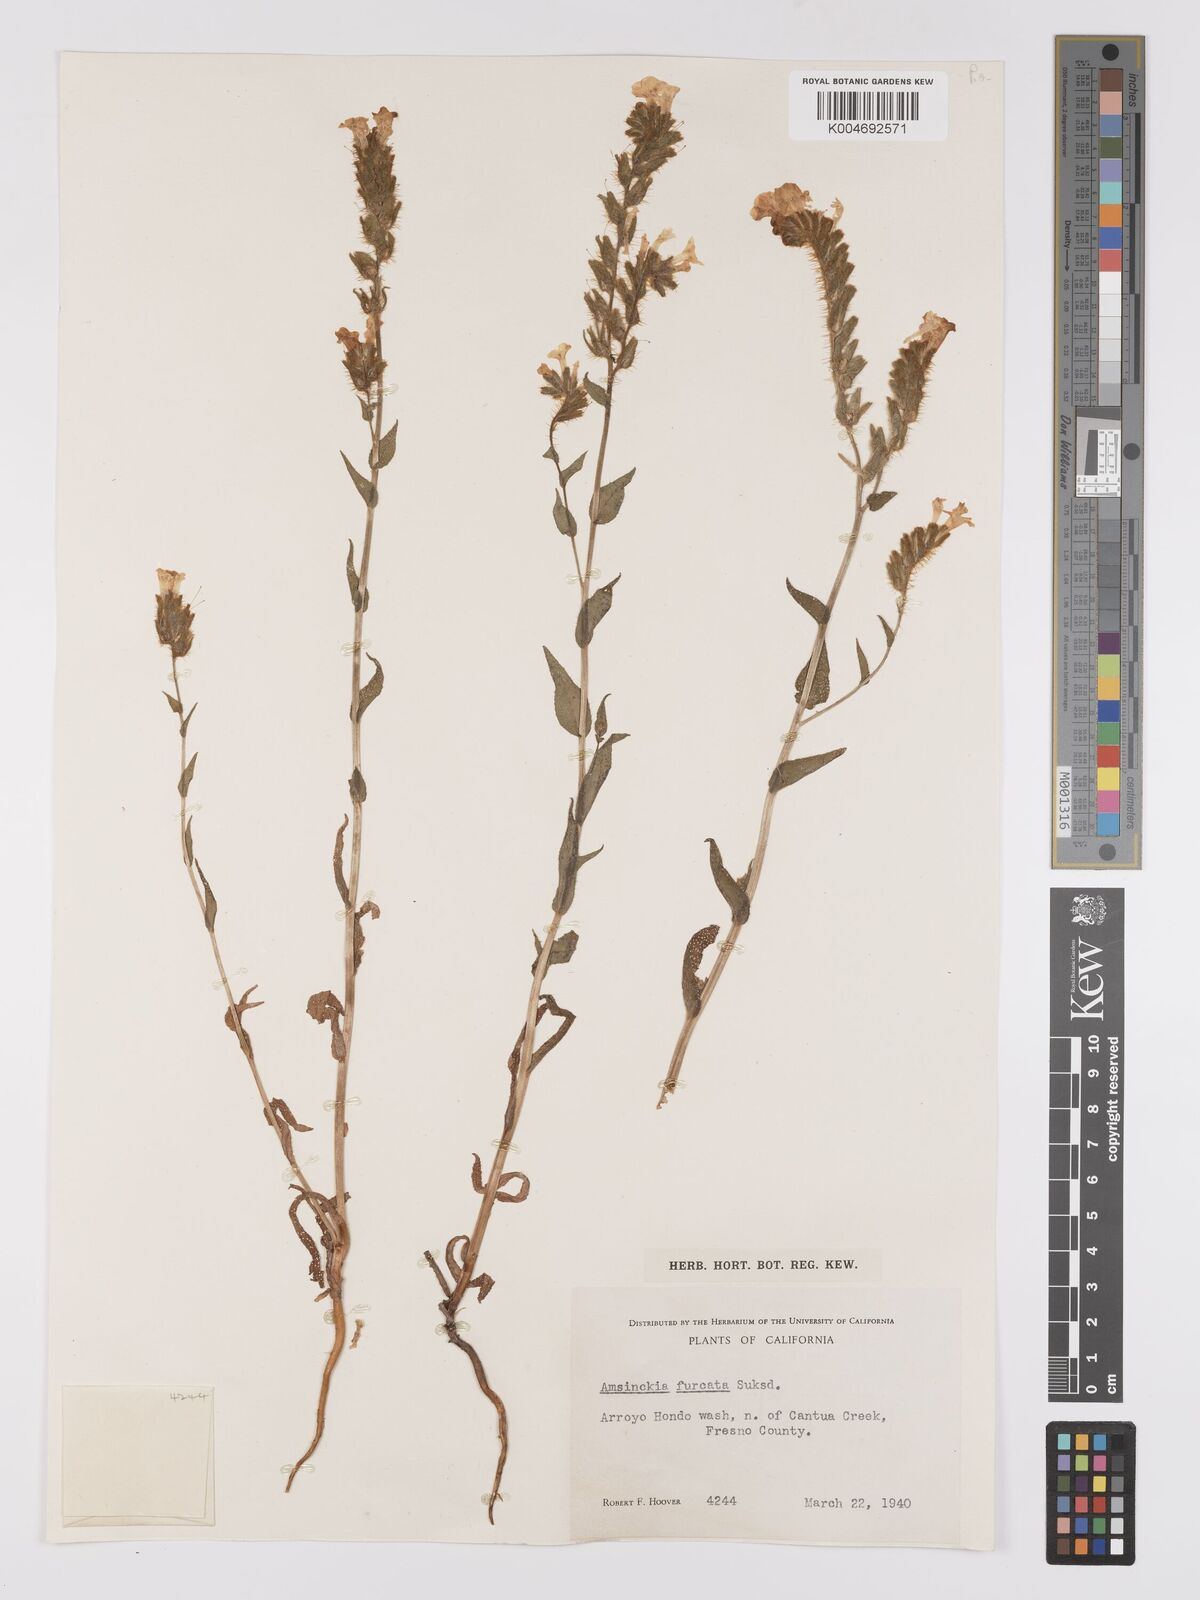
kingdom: Plantae
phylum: Tracheophyta
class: Magnoliopsida
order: Boraginales
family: Boraginaceae
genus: Amsinckia
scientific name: Amsinckia vernicosa
